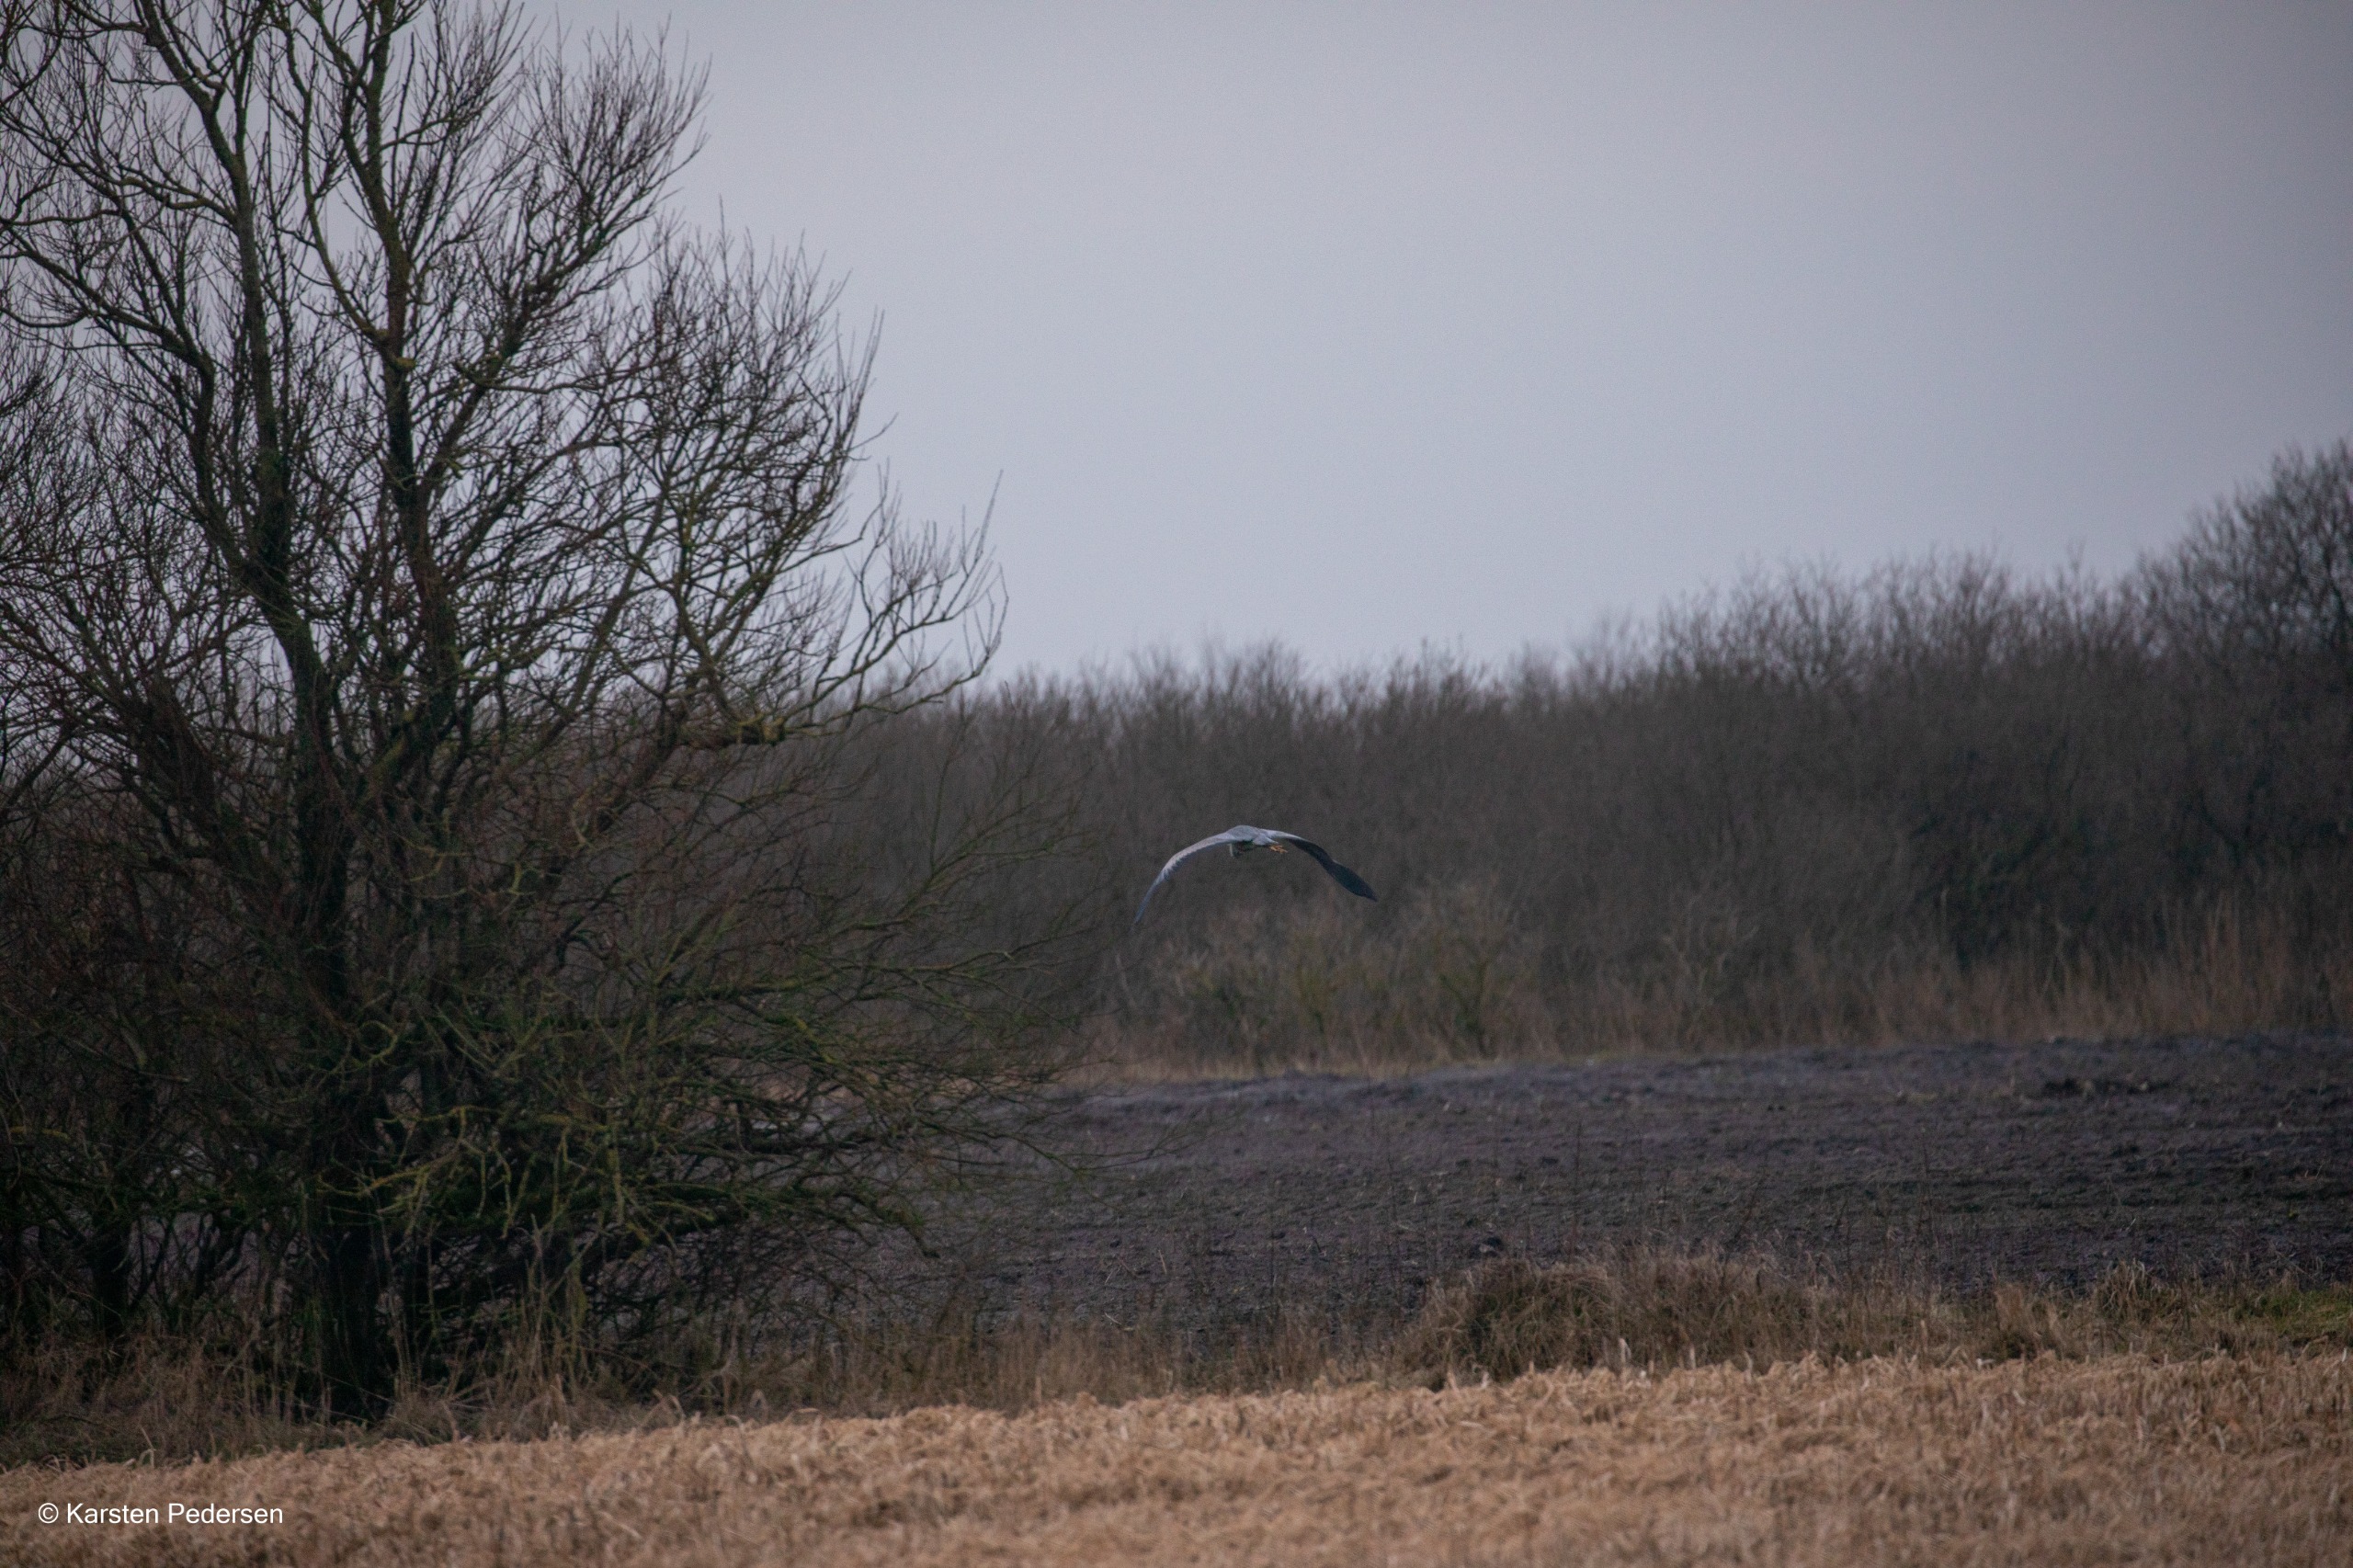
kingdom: Animalia
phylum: Chordata
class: Aves
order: Pelecaniformes
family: Ardeidae
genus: Ardea
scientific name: Ardea cinerea
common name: Fiskehejre
